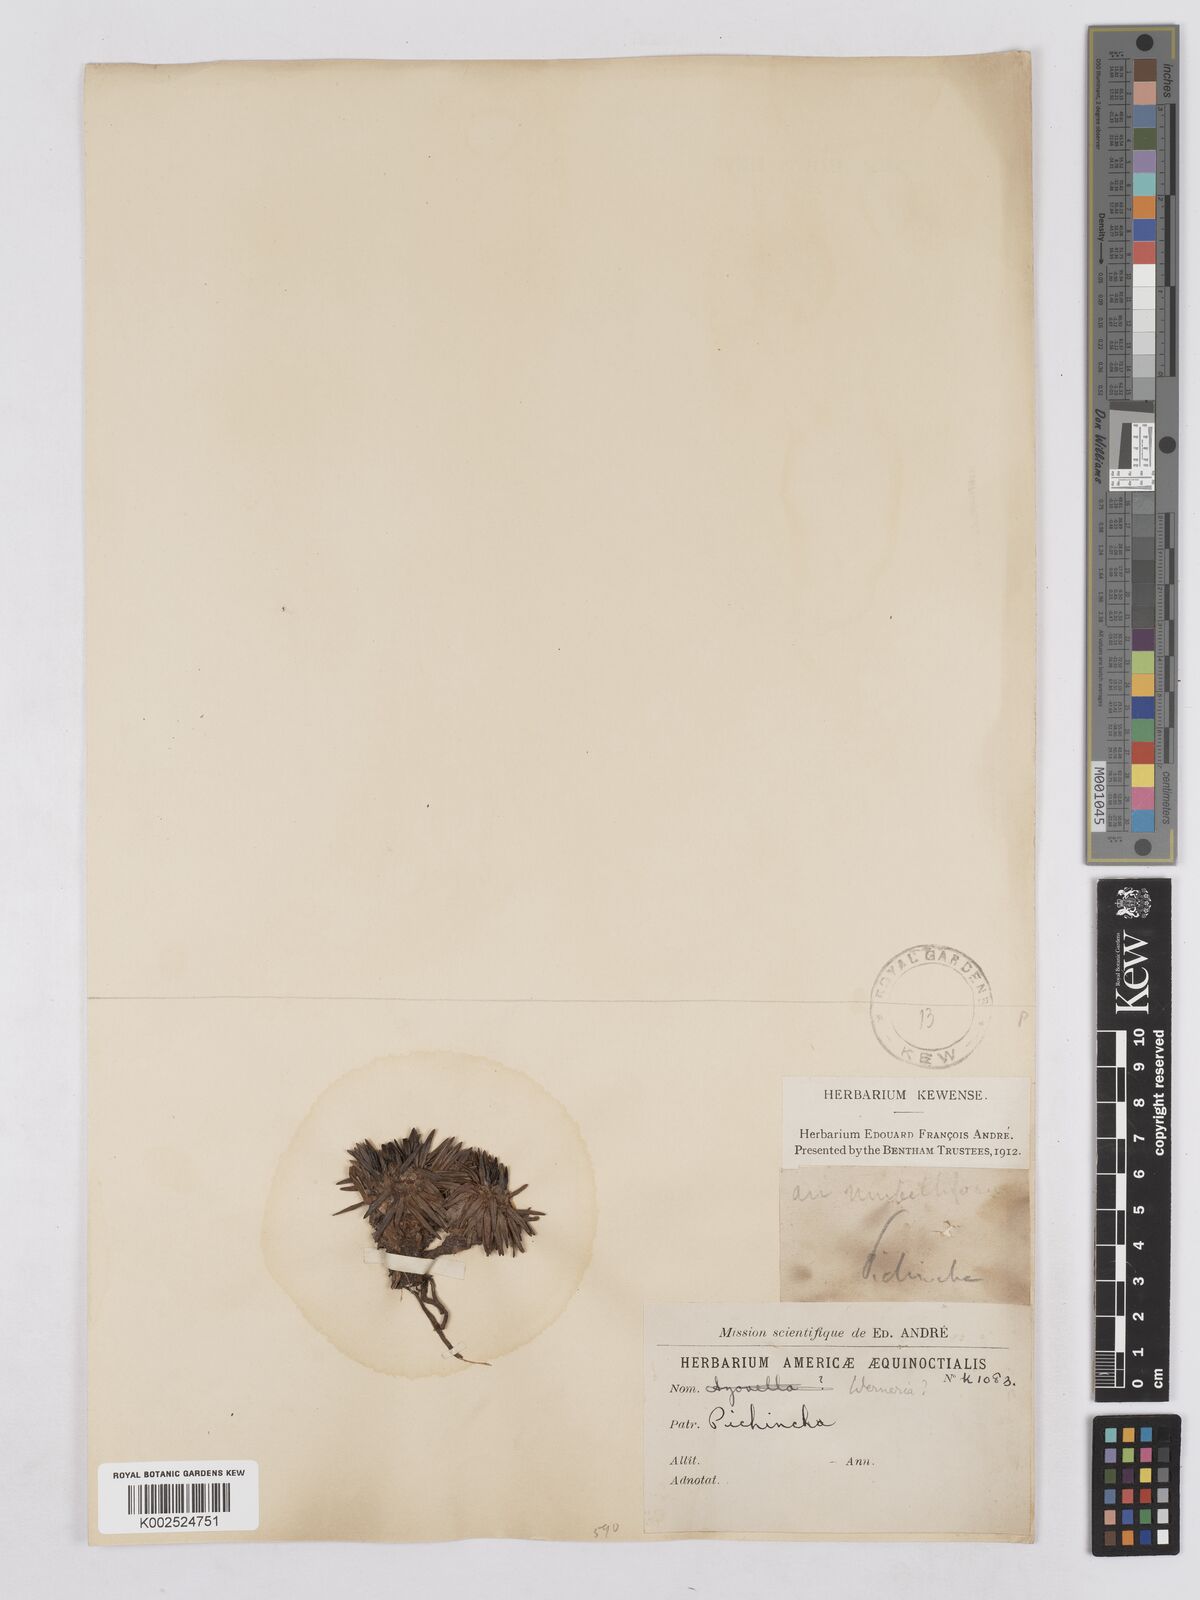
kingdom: Plantae
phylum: Tracheophyta
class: Magnoliopsida
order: Asterales
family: Asteraceae
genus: Rockhausenia
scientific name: Rockhausenia pumila
